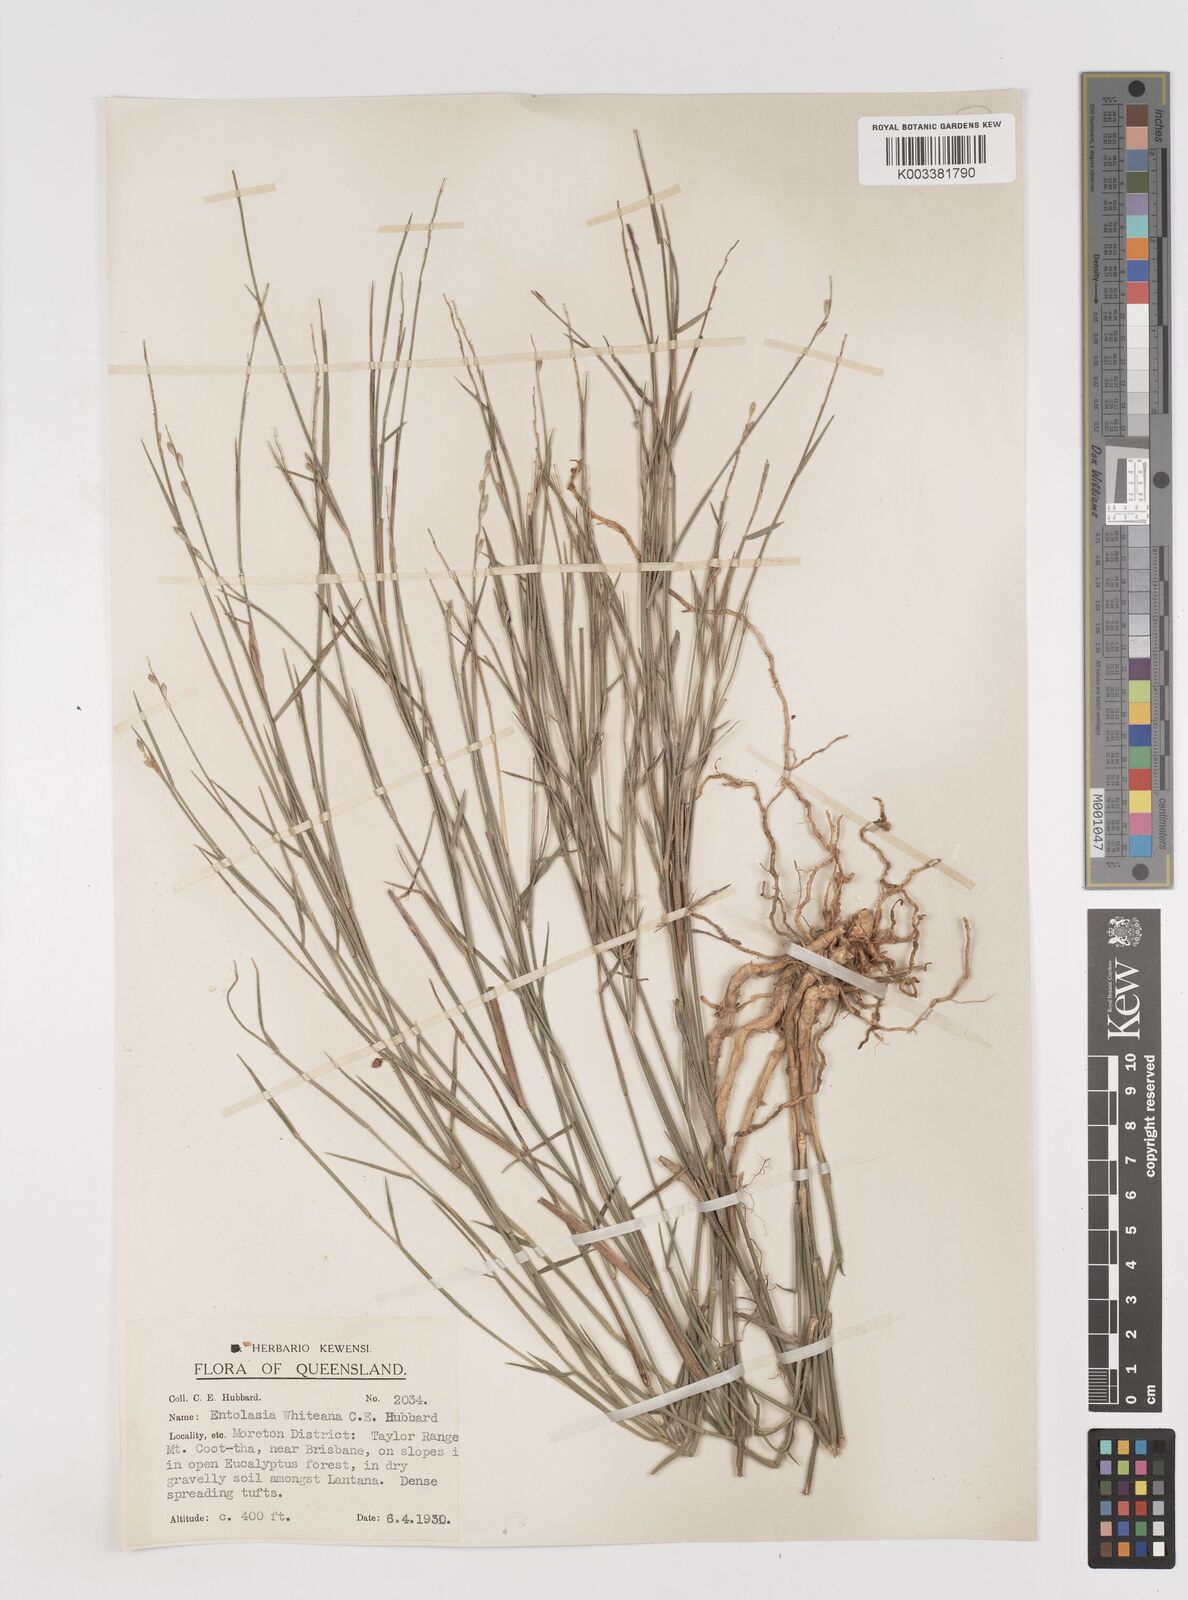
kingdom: Plantae
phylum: Tracheophyta
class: Liliopsida
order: Poales
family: Poaceae
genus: Entolasia
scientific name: Entolasia whiteana
